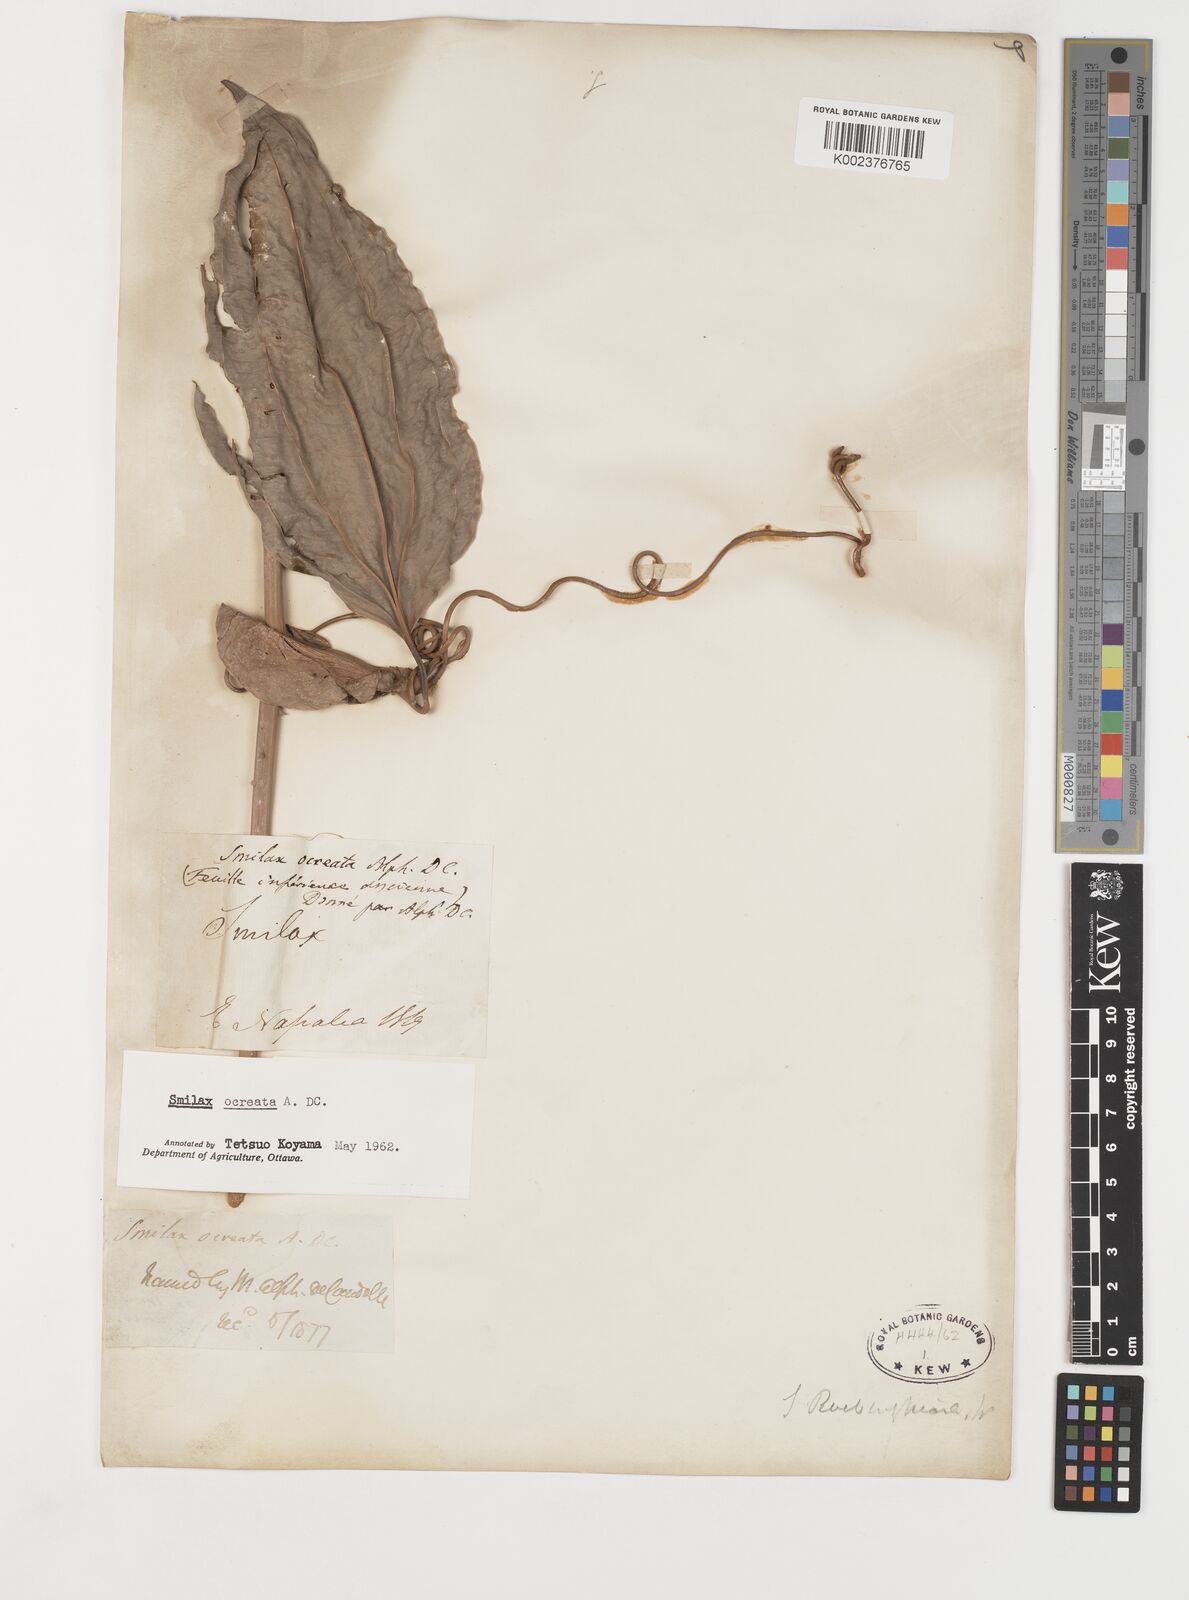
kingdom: Plantae
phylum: Tracheophyta
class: Liliopsida
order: Liliales
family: Smilacaceae
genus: Smilax
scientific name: Smilax ocreata
